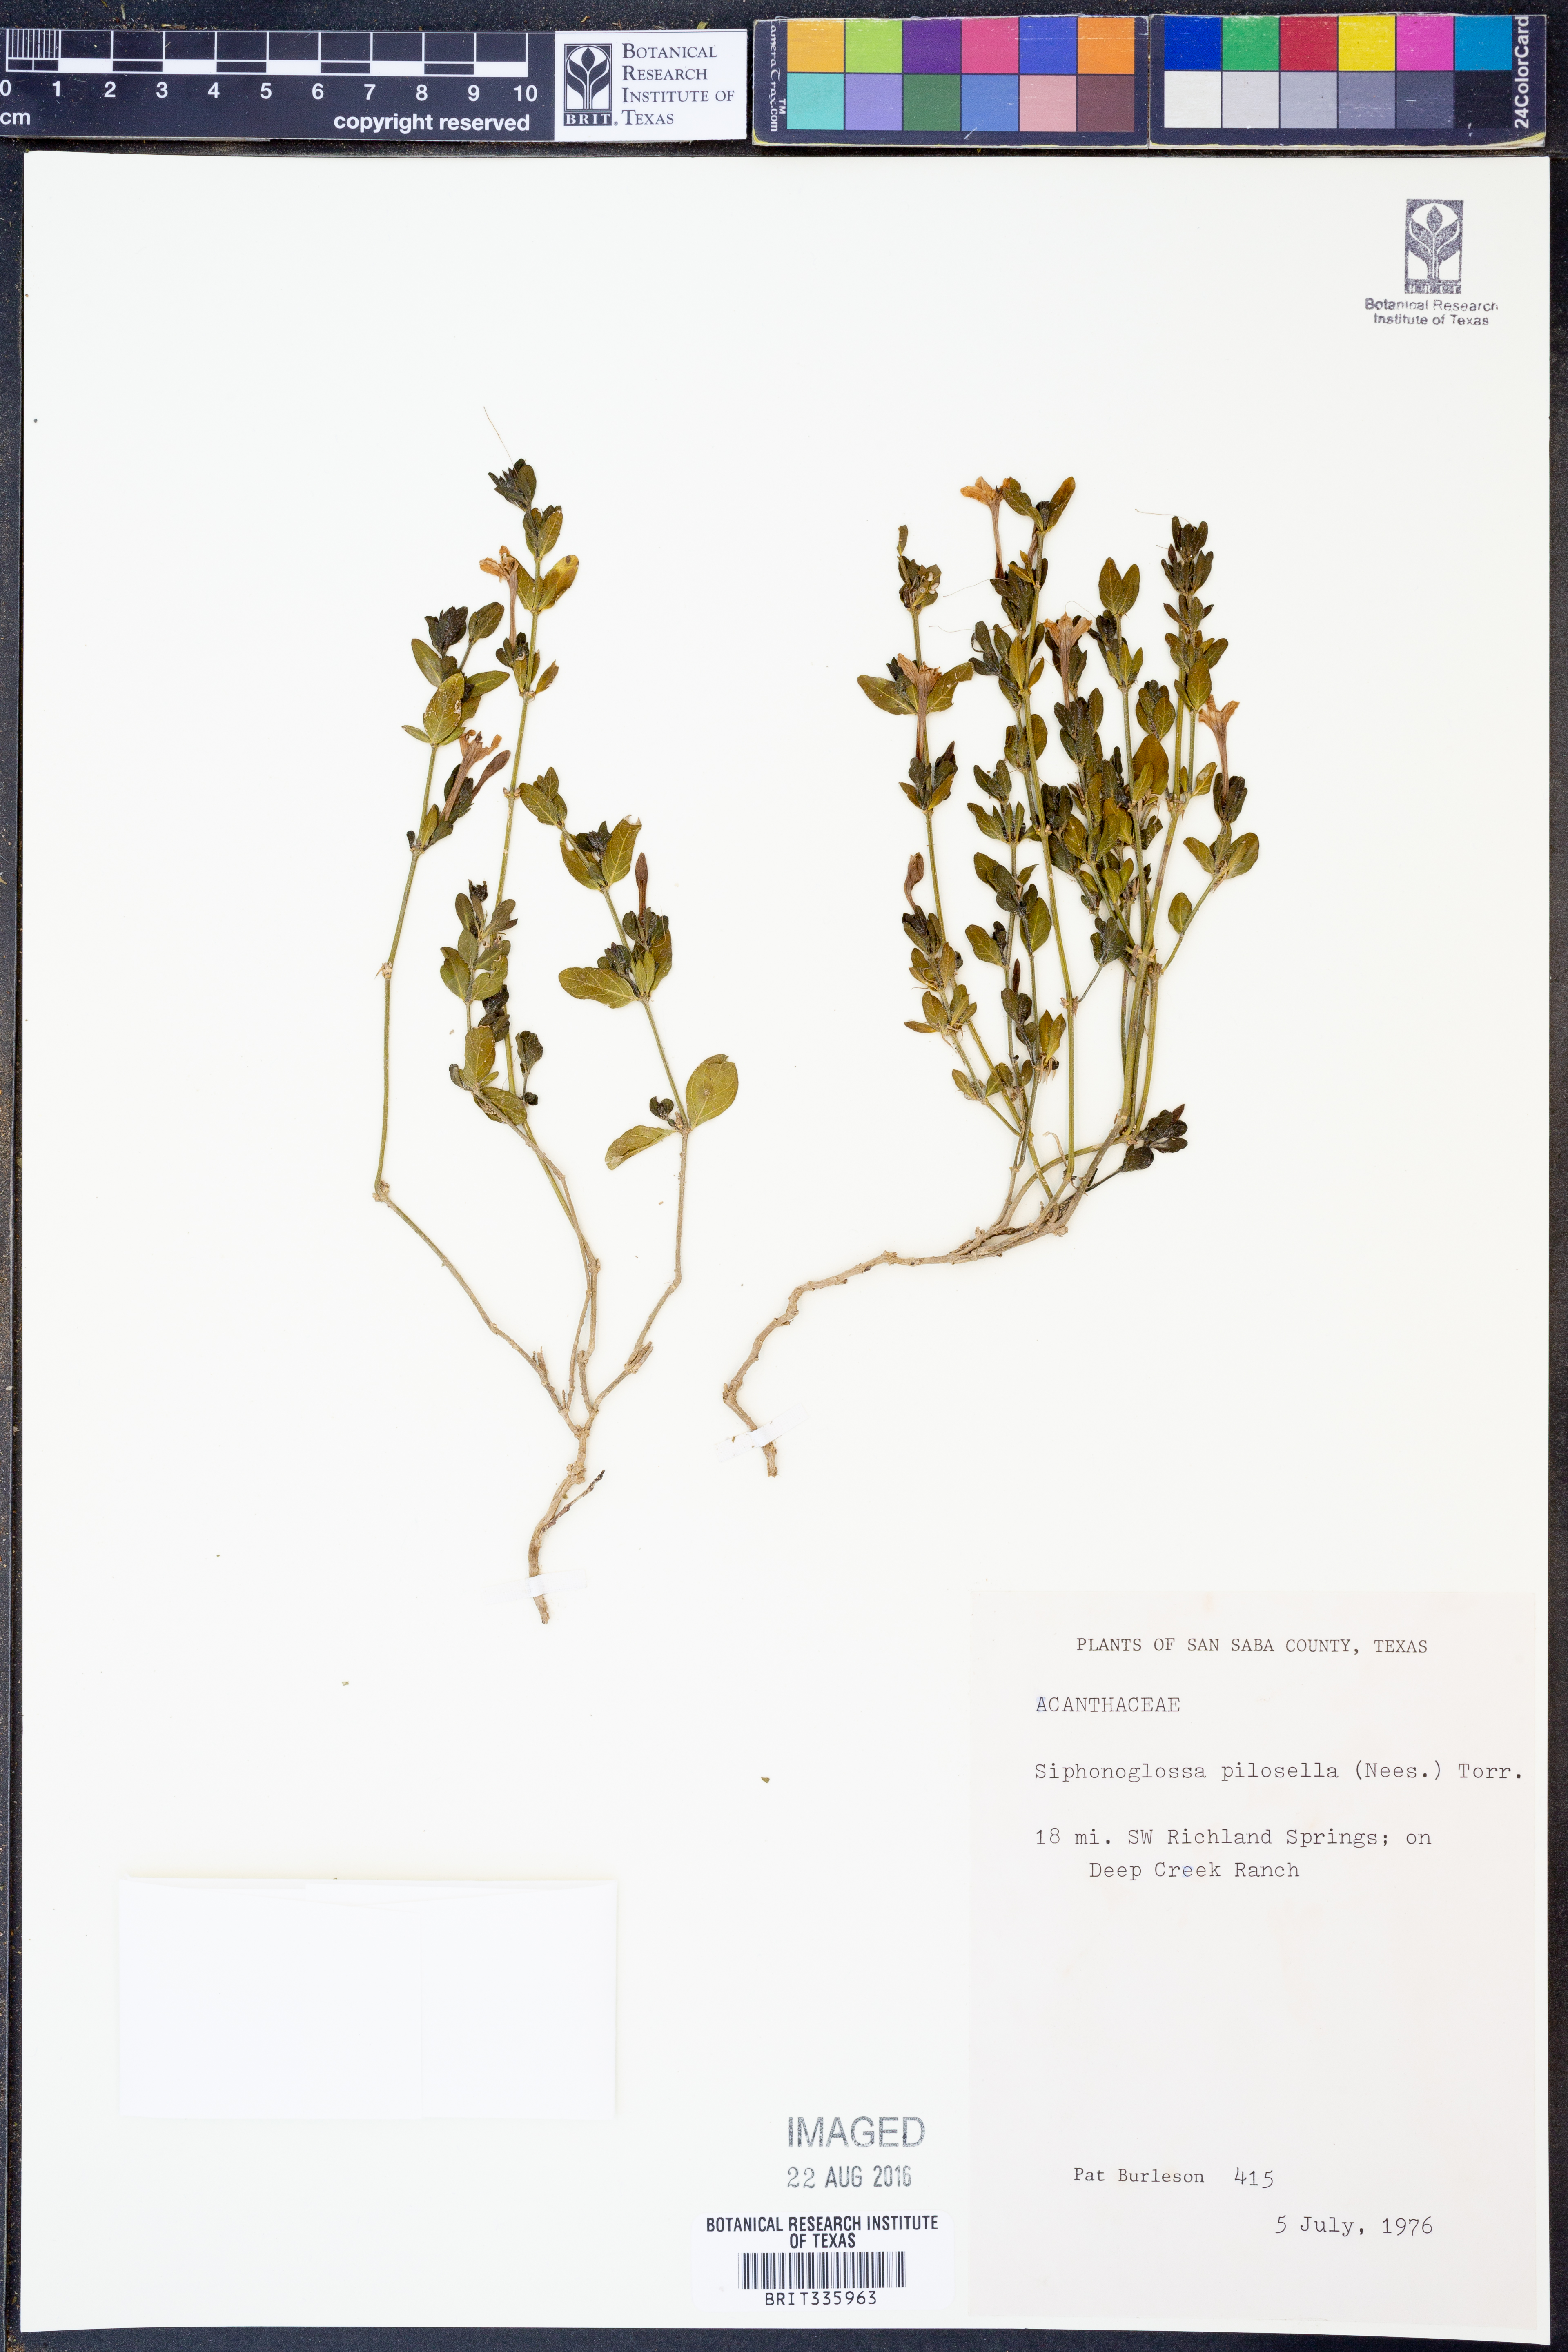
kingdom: Plantae
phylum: Tracheophyta
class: Magnoliopsida
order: Lamiales
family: Acanthaceae
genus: Justicia
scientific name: Justicia pilosella
